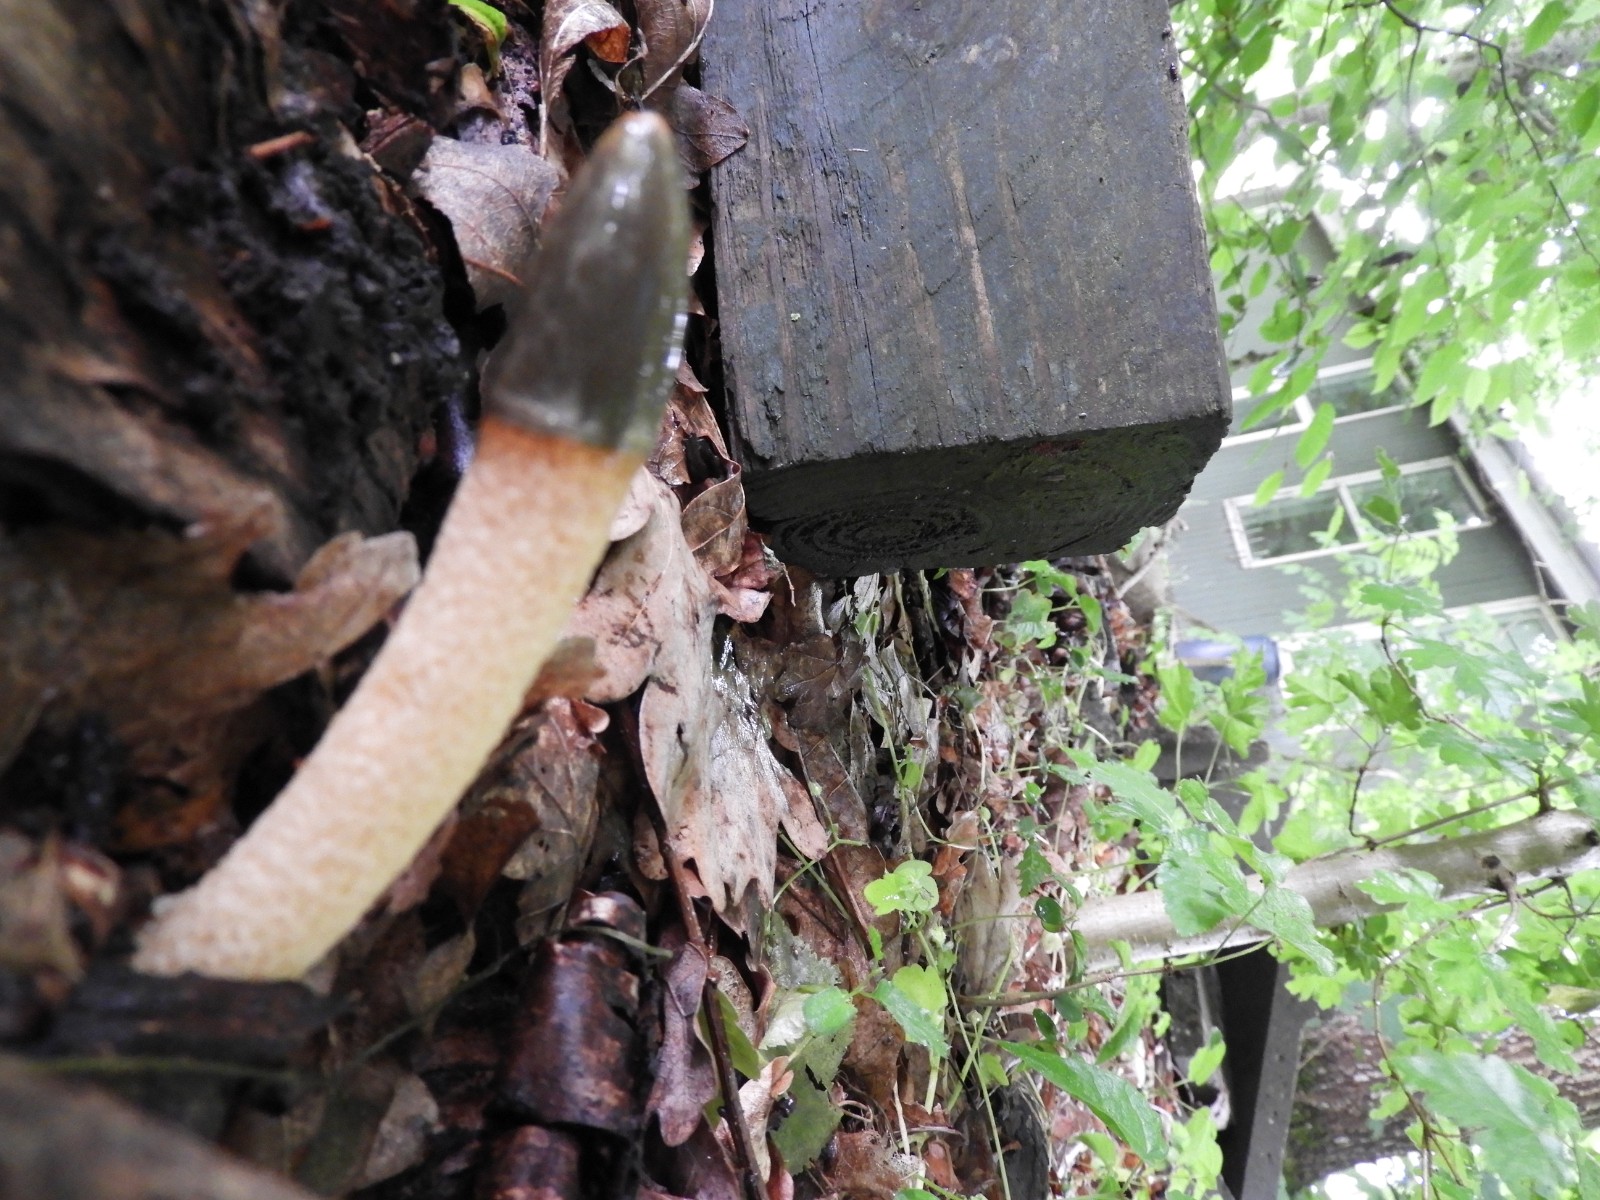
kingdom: Fungi
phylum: Basidiomycota
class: Agaricomycetes
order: Phallales
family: Phallaceae
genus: Mutinus
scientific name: Mutinus caninus
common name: hunde-stinksvamp
